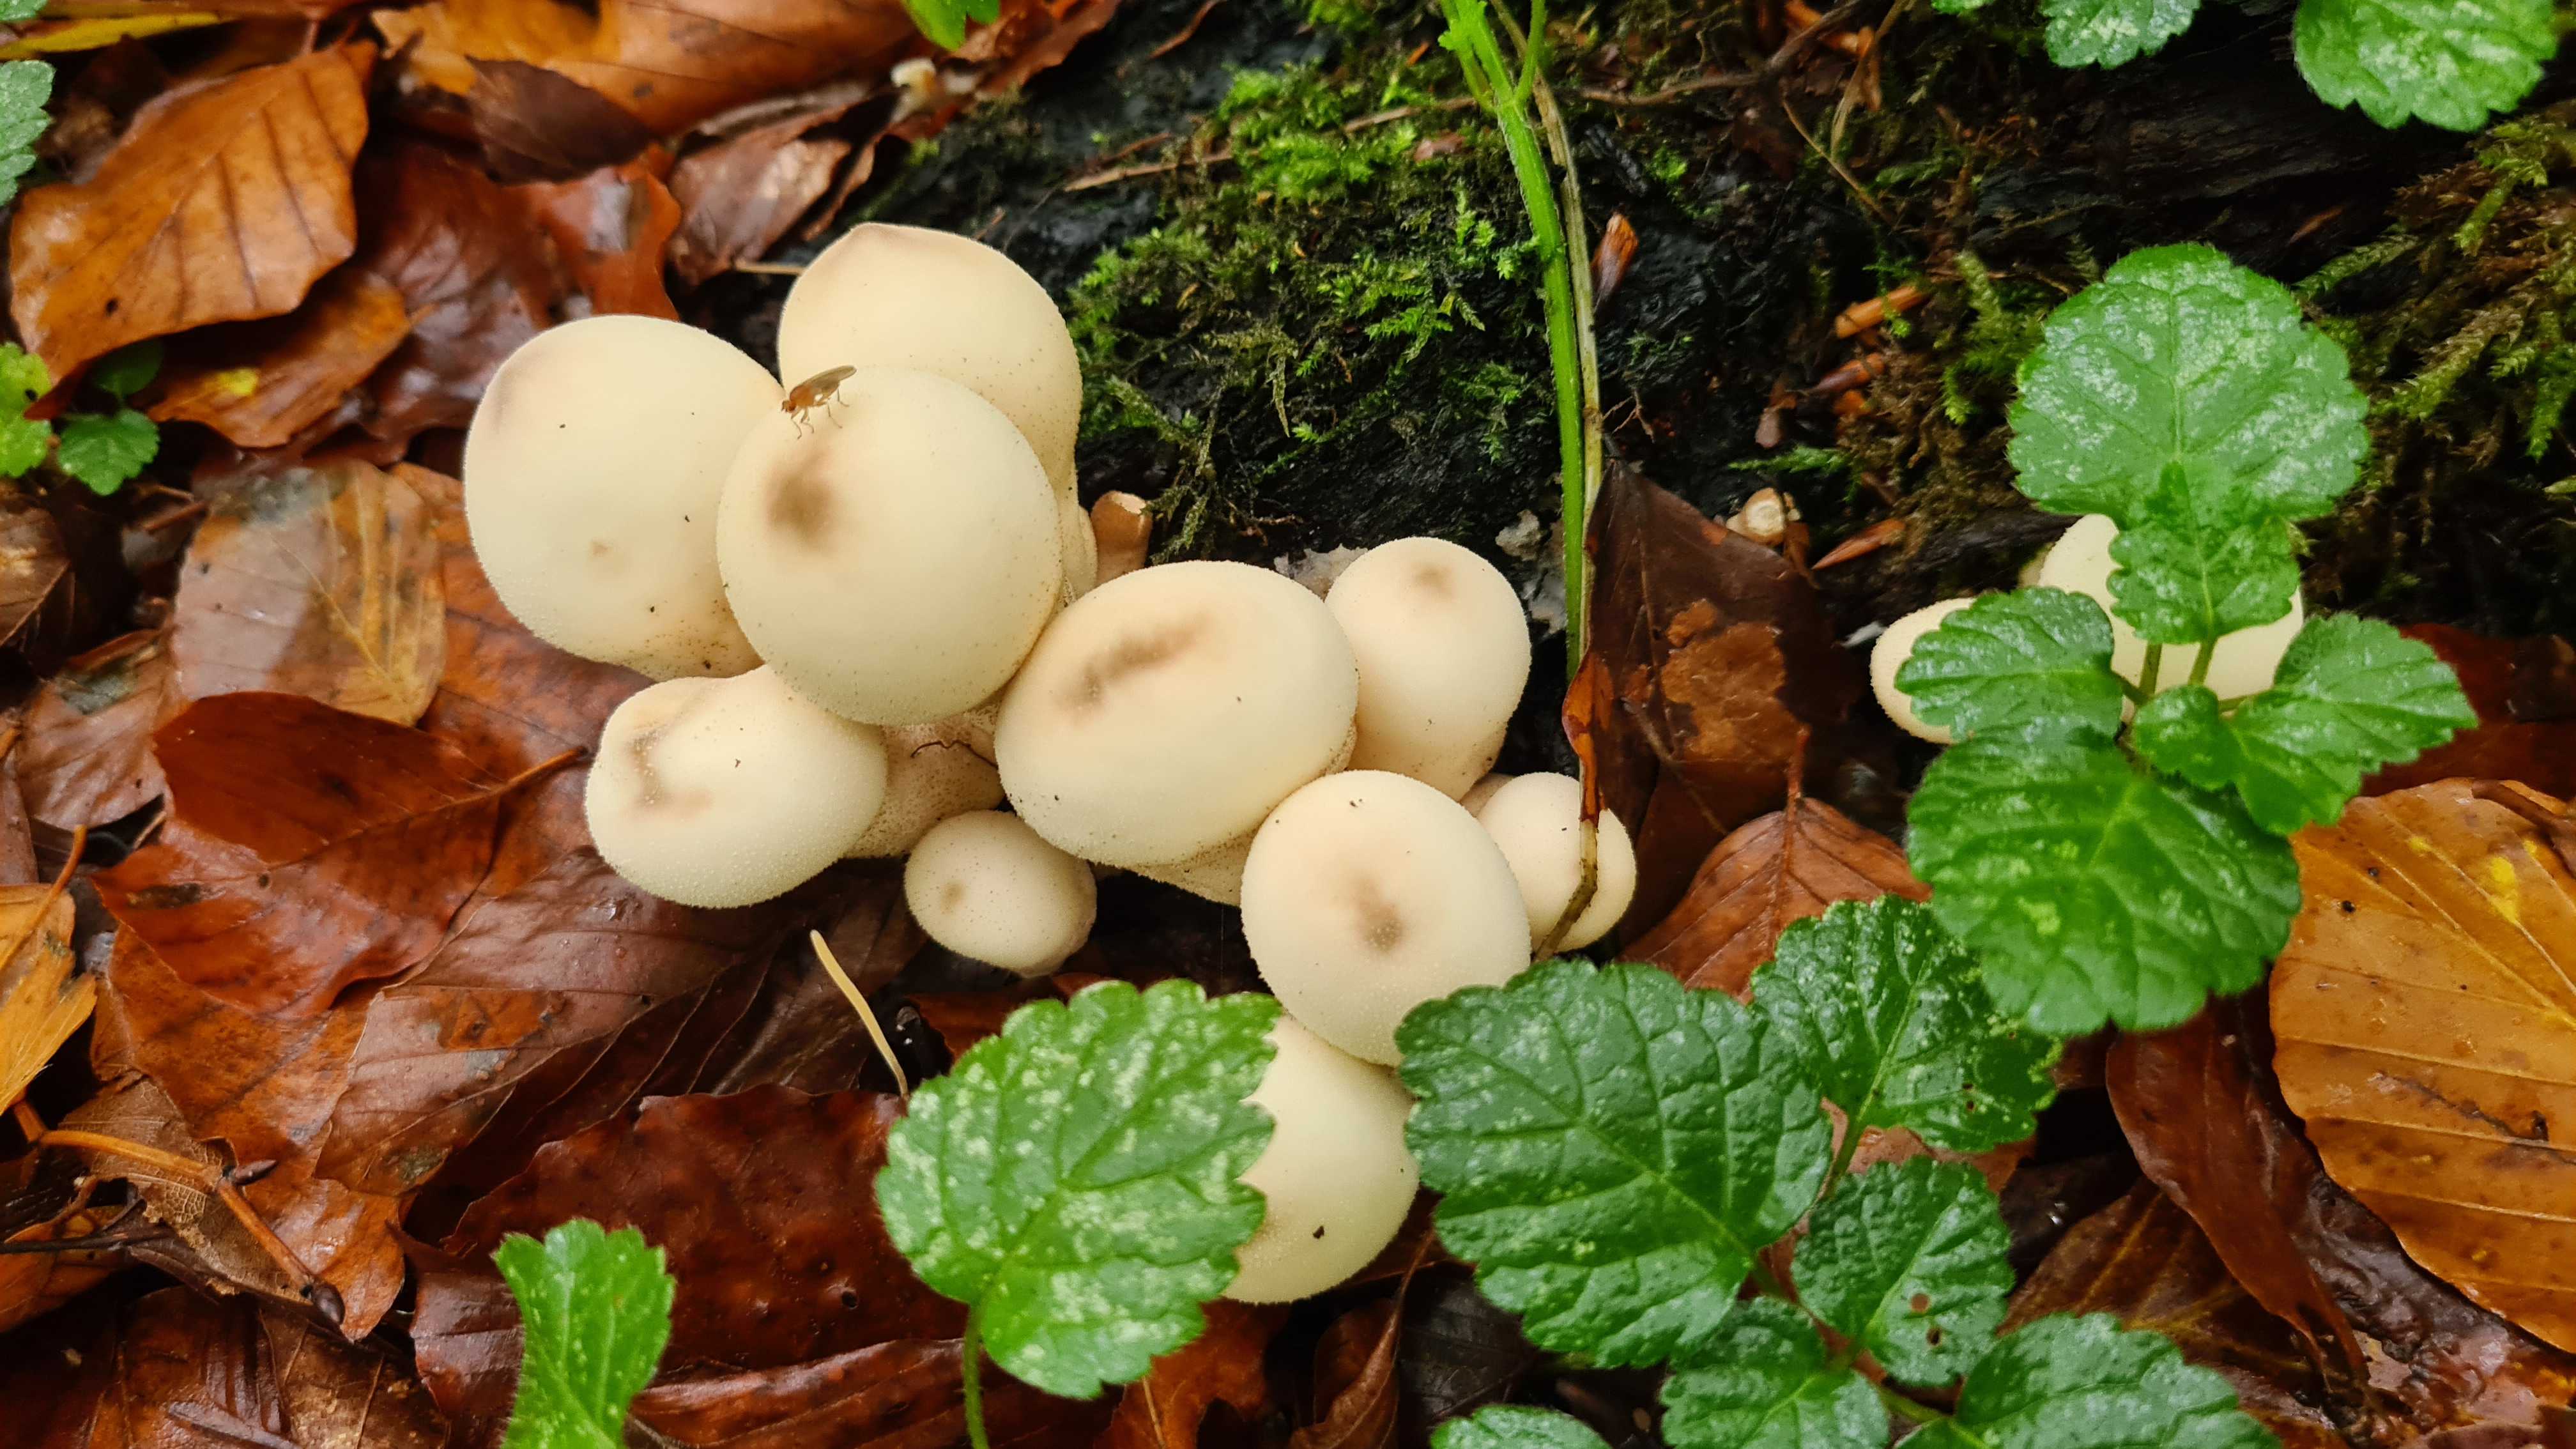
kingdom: Fungi
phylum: Basidiomycota
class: Agaricomycetes
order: Agaricales
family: Lycoperdaceae
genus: Apioperdon
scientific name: Apioperdon pyriforme
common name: pære-støvbold
